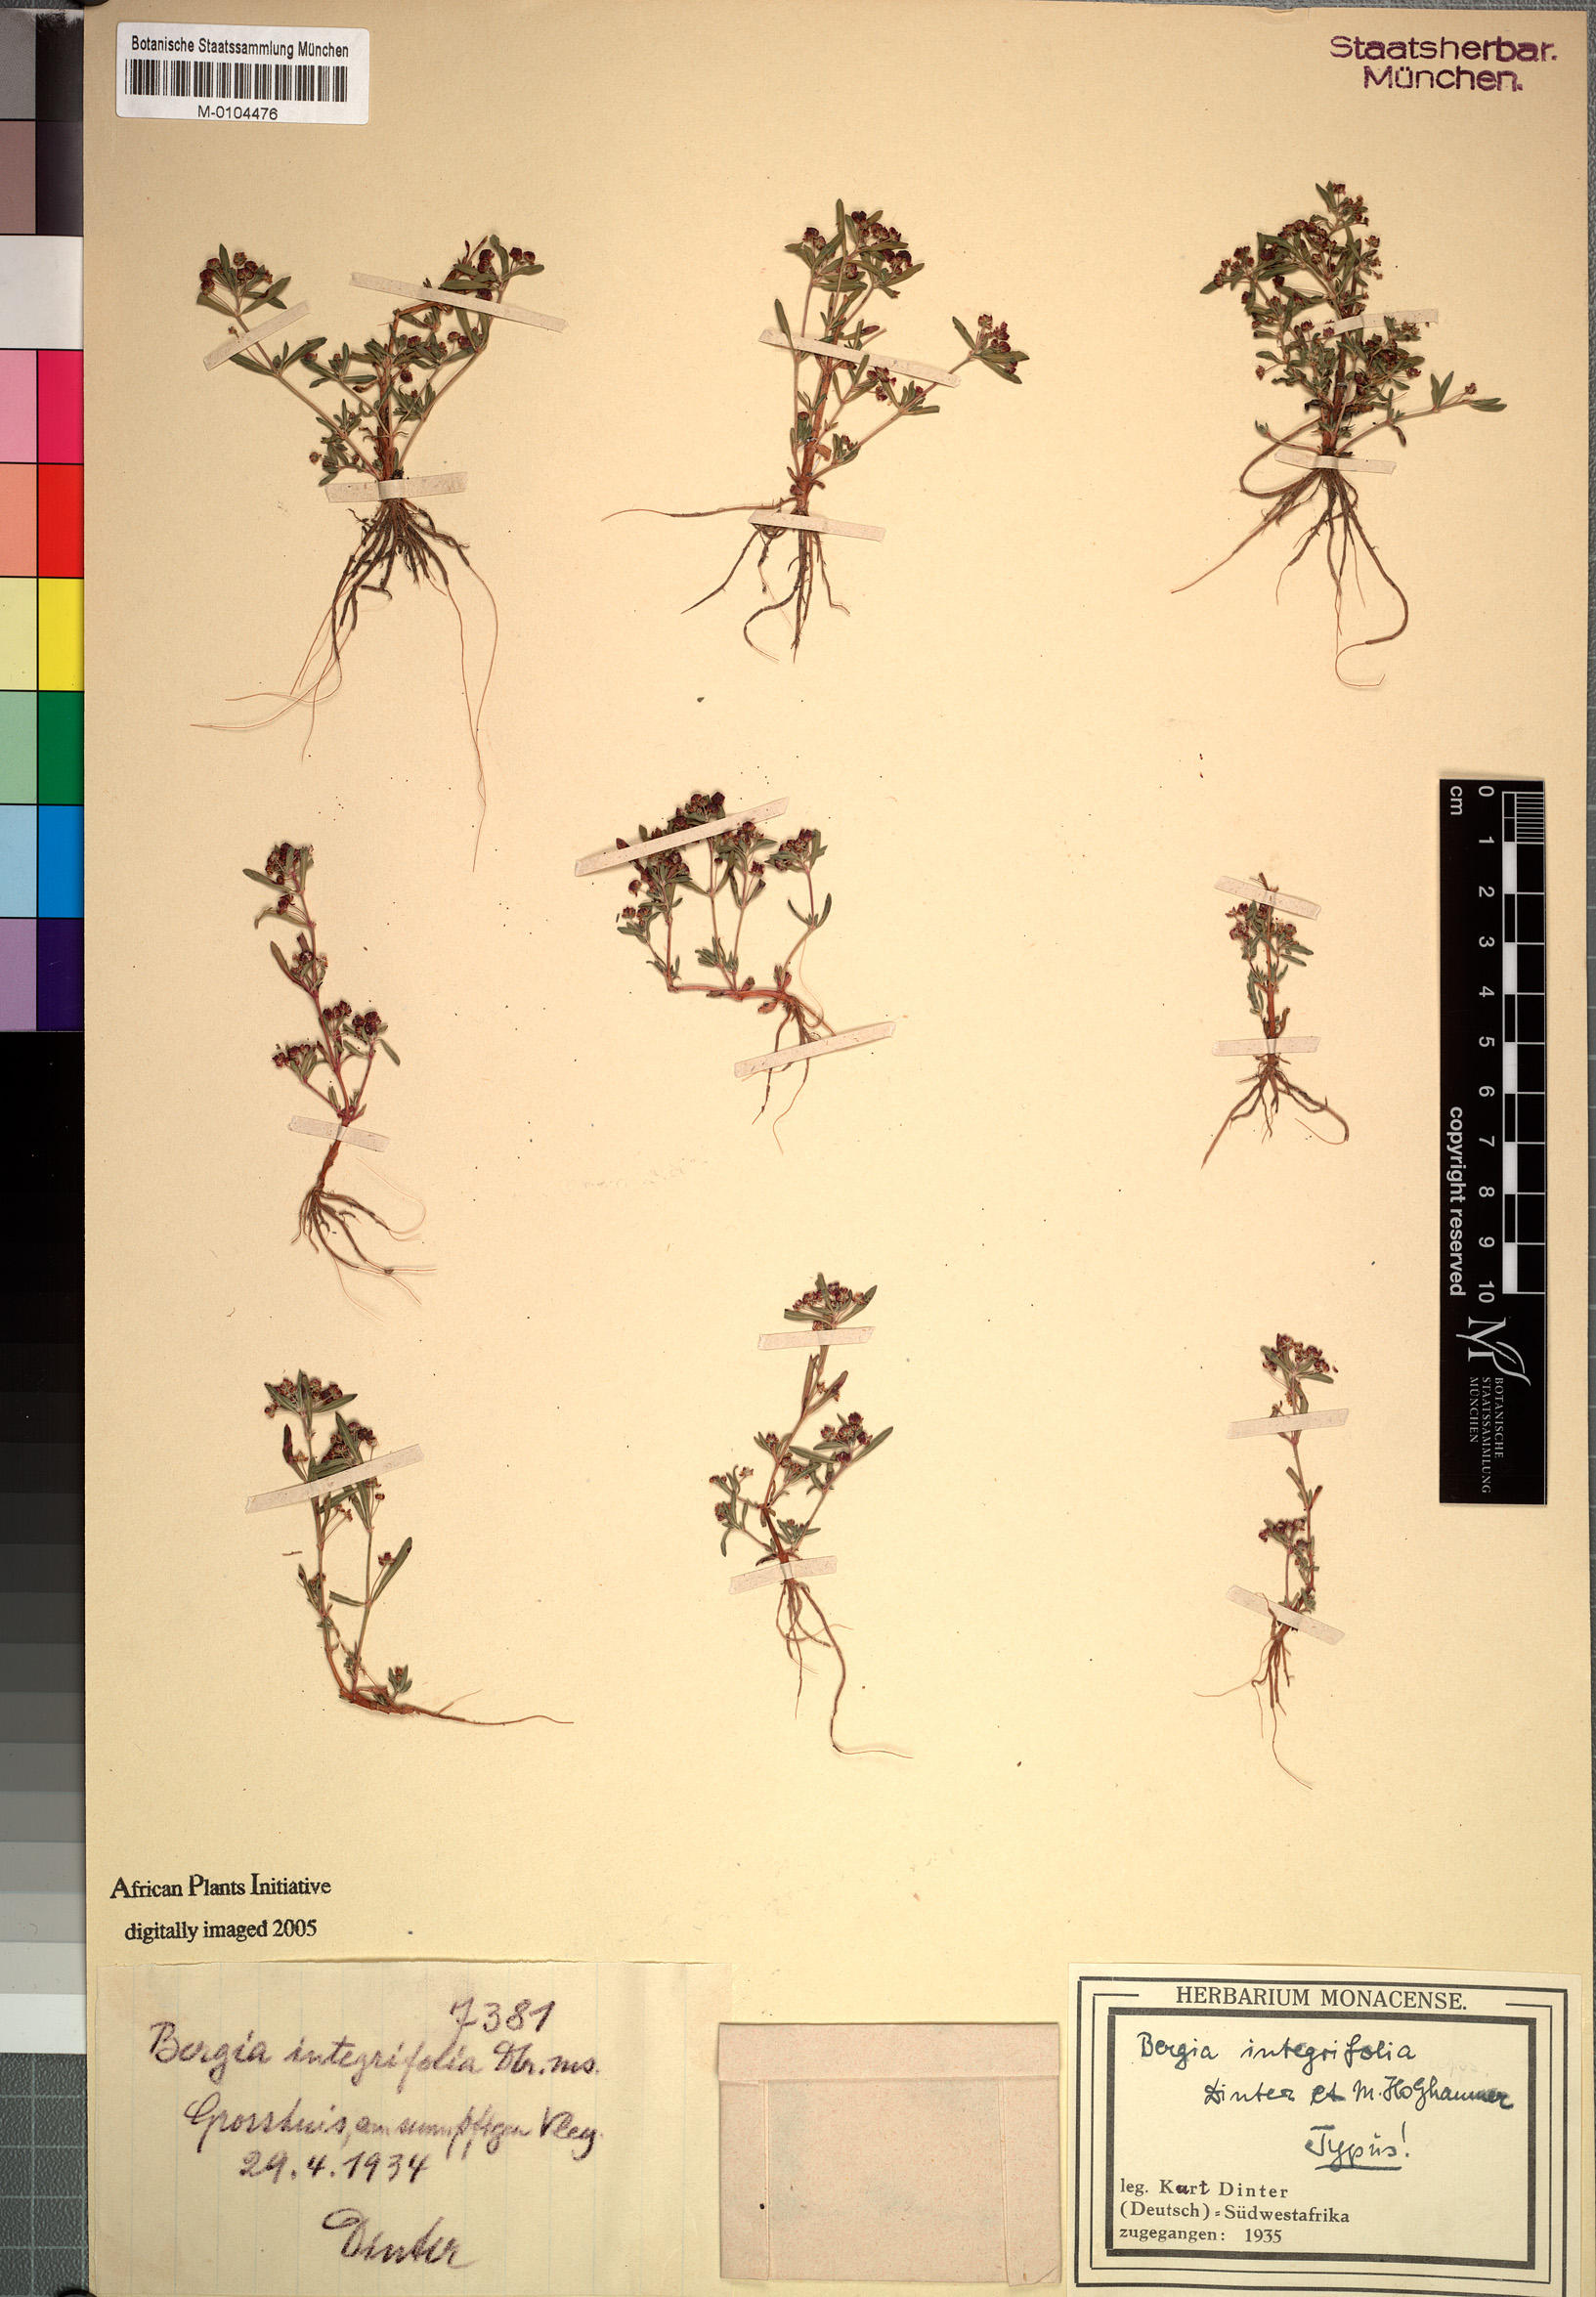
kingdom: Plantae
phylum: Tracheophyta
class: Magnoliopsida
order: Malpighiales
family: Elatinaceae
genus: Bergia
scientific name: Bergia polyantha
